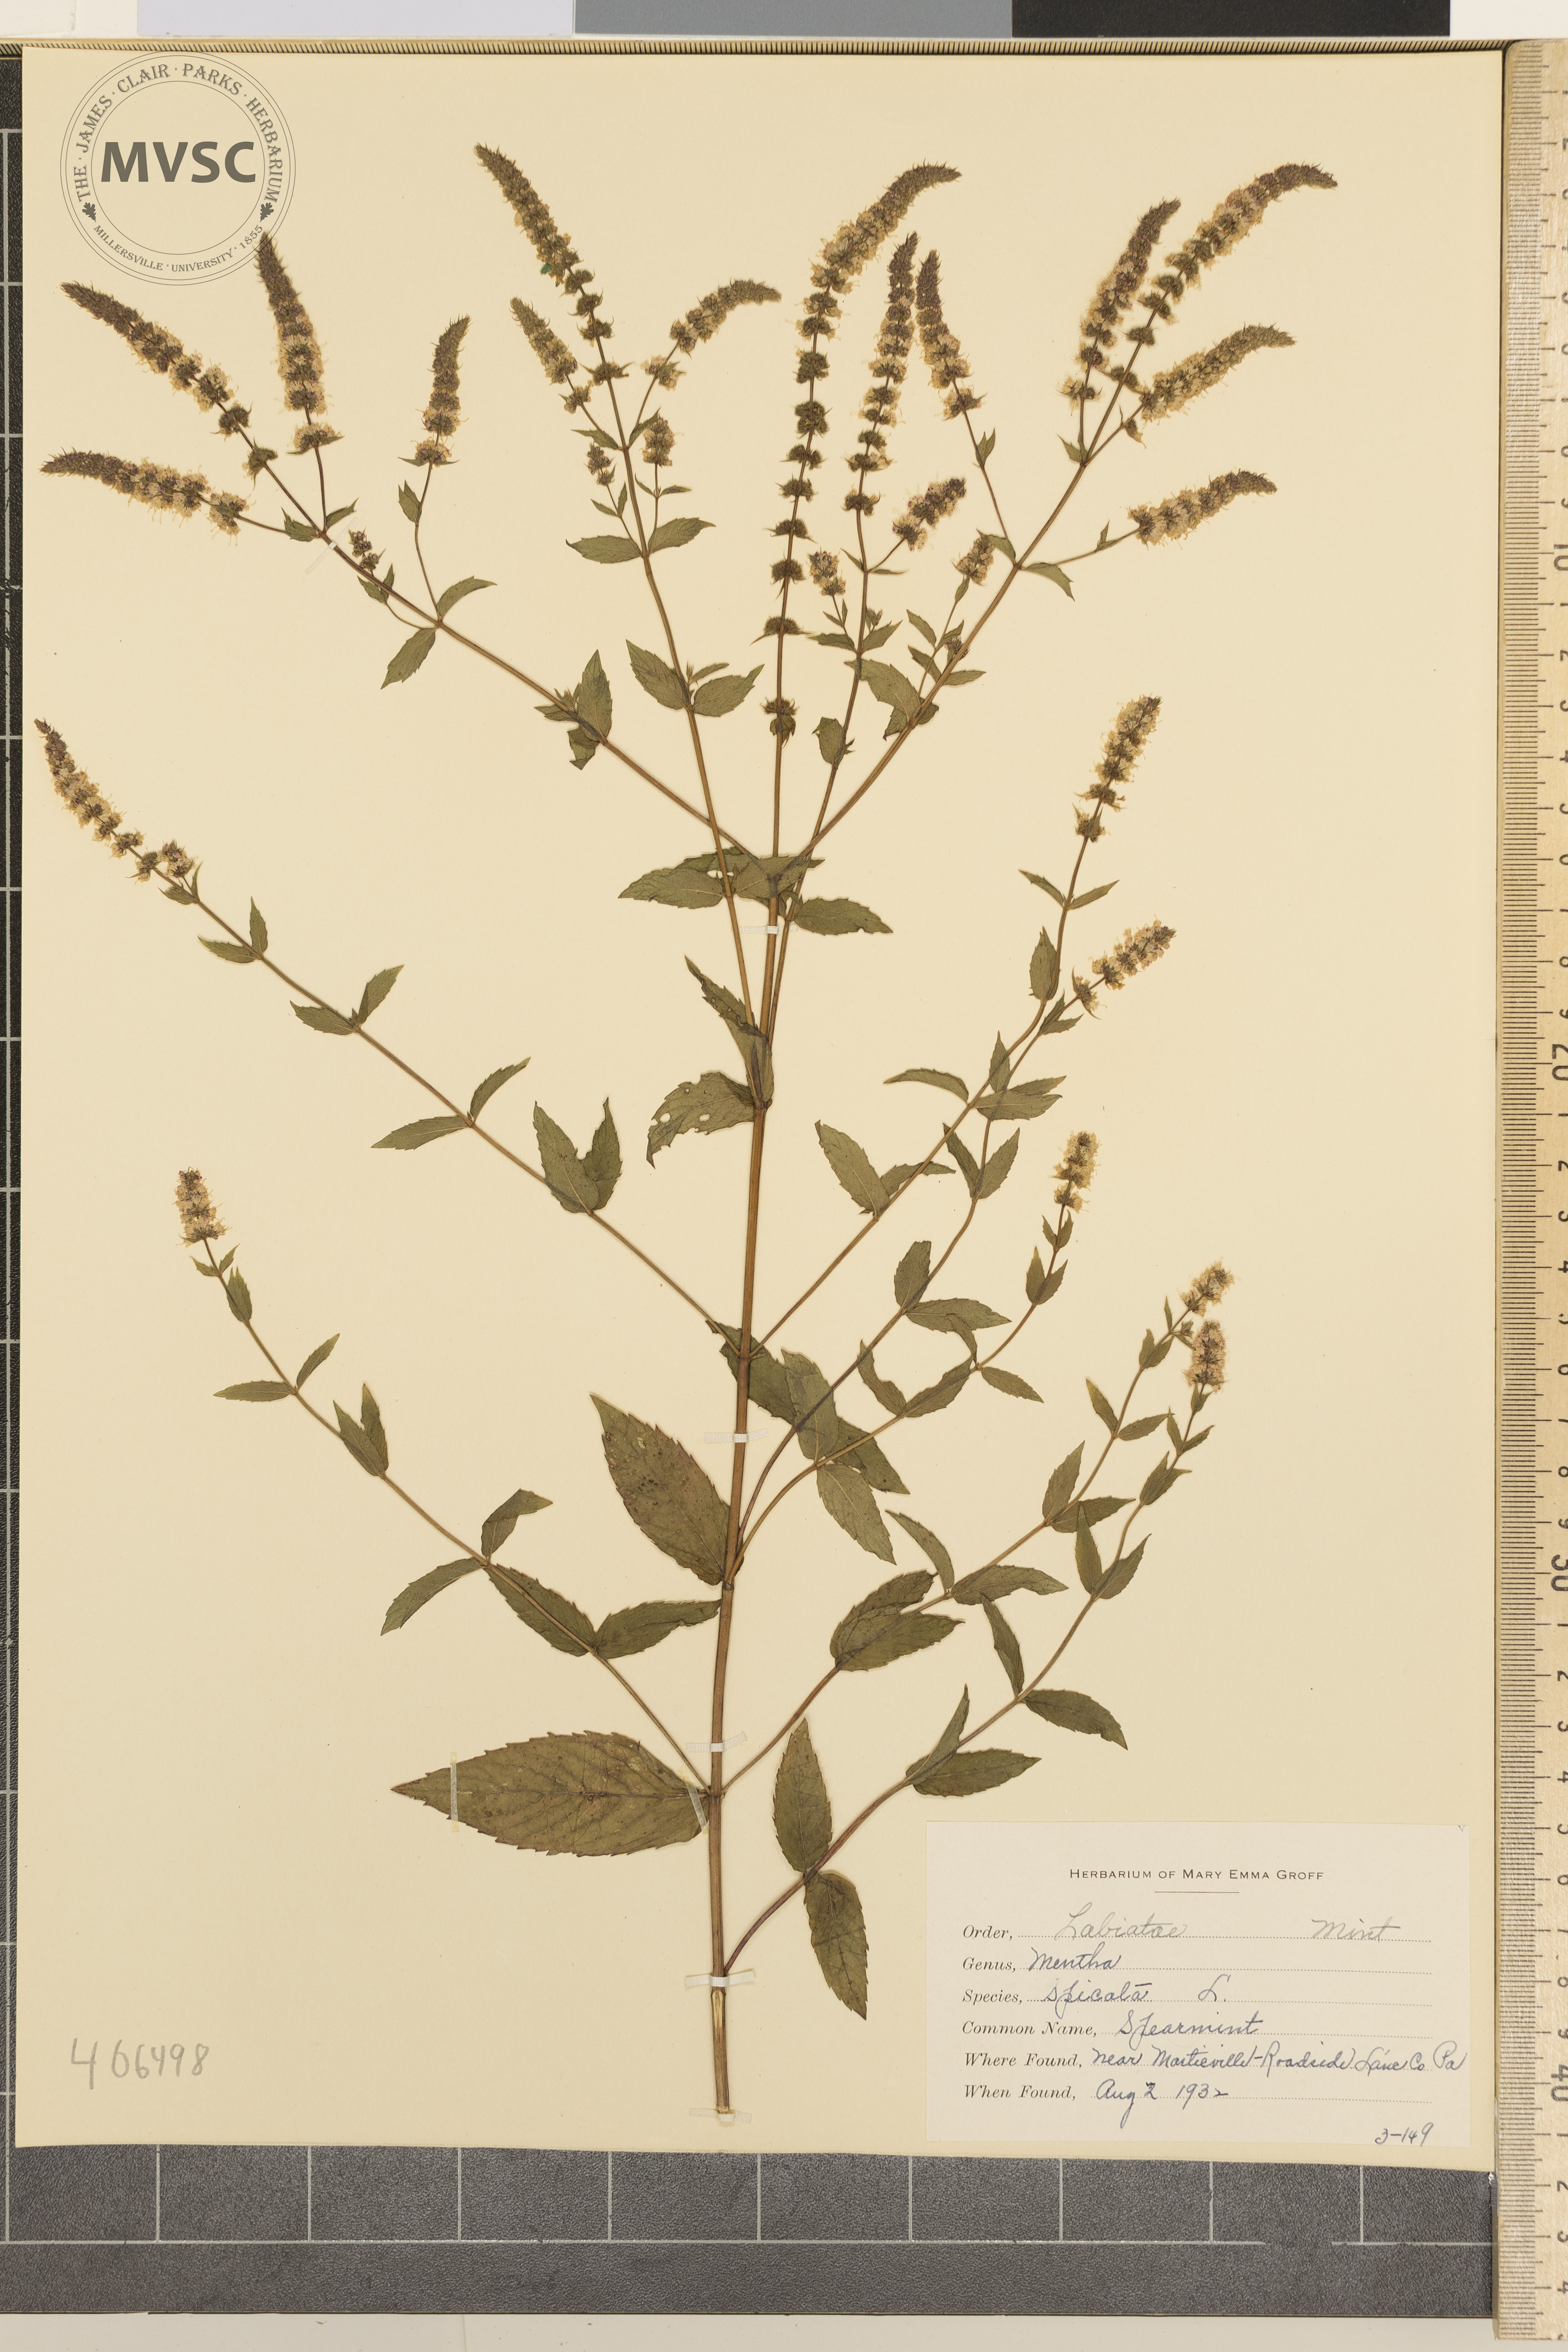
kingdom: Plantae
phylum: Tracheophyta
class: Magnoliopsida
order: Lamiales
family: Lamiaceae
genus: Mentha
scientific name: Mentha spicata
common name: Spearmint
